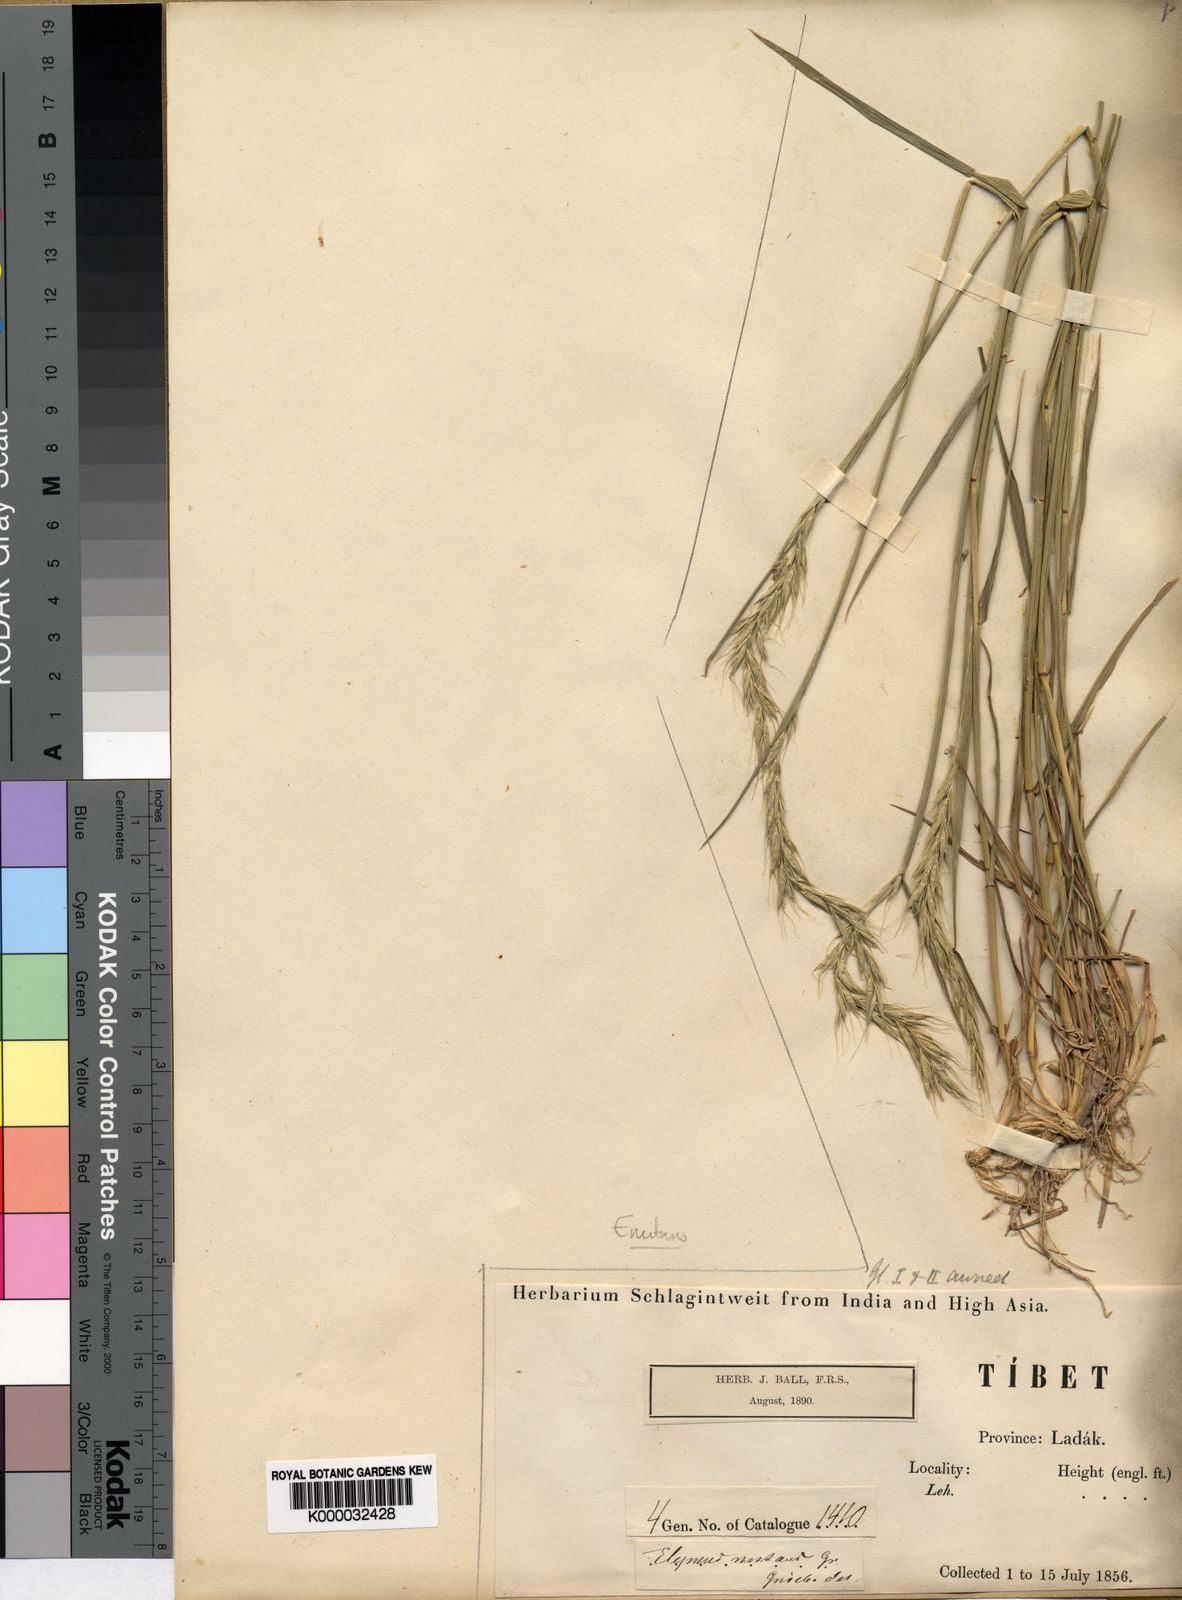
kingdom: Plantae
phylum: Tracheophyta
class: Liliopsida
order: Poales
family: Poaceae
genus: Elymus
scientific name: Elymus sibiricus
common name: Siberian wildrye
